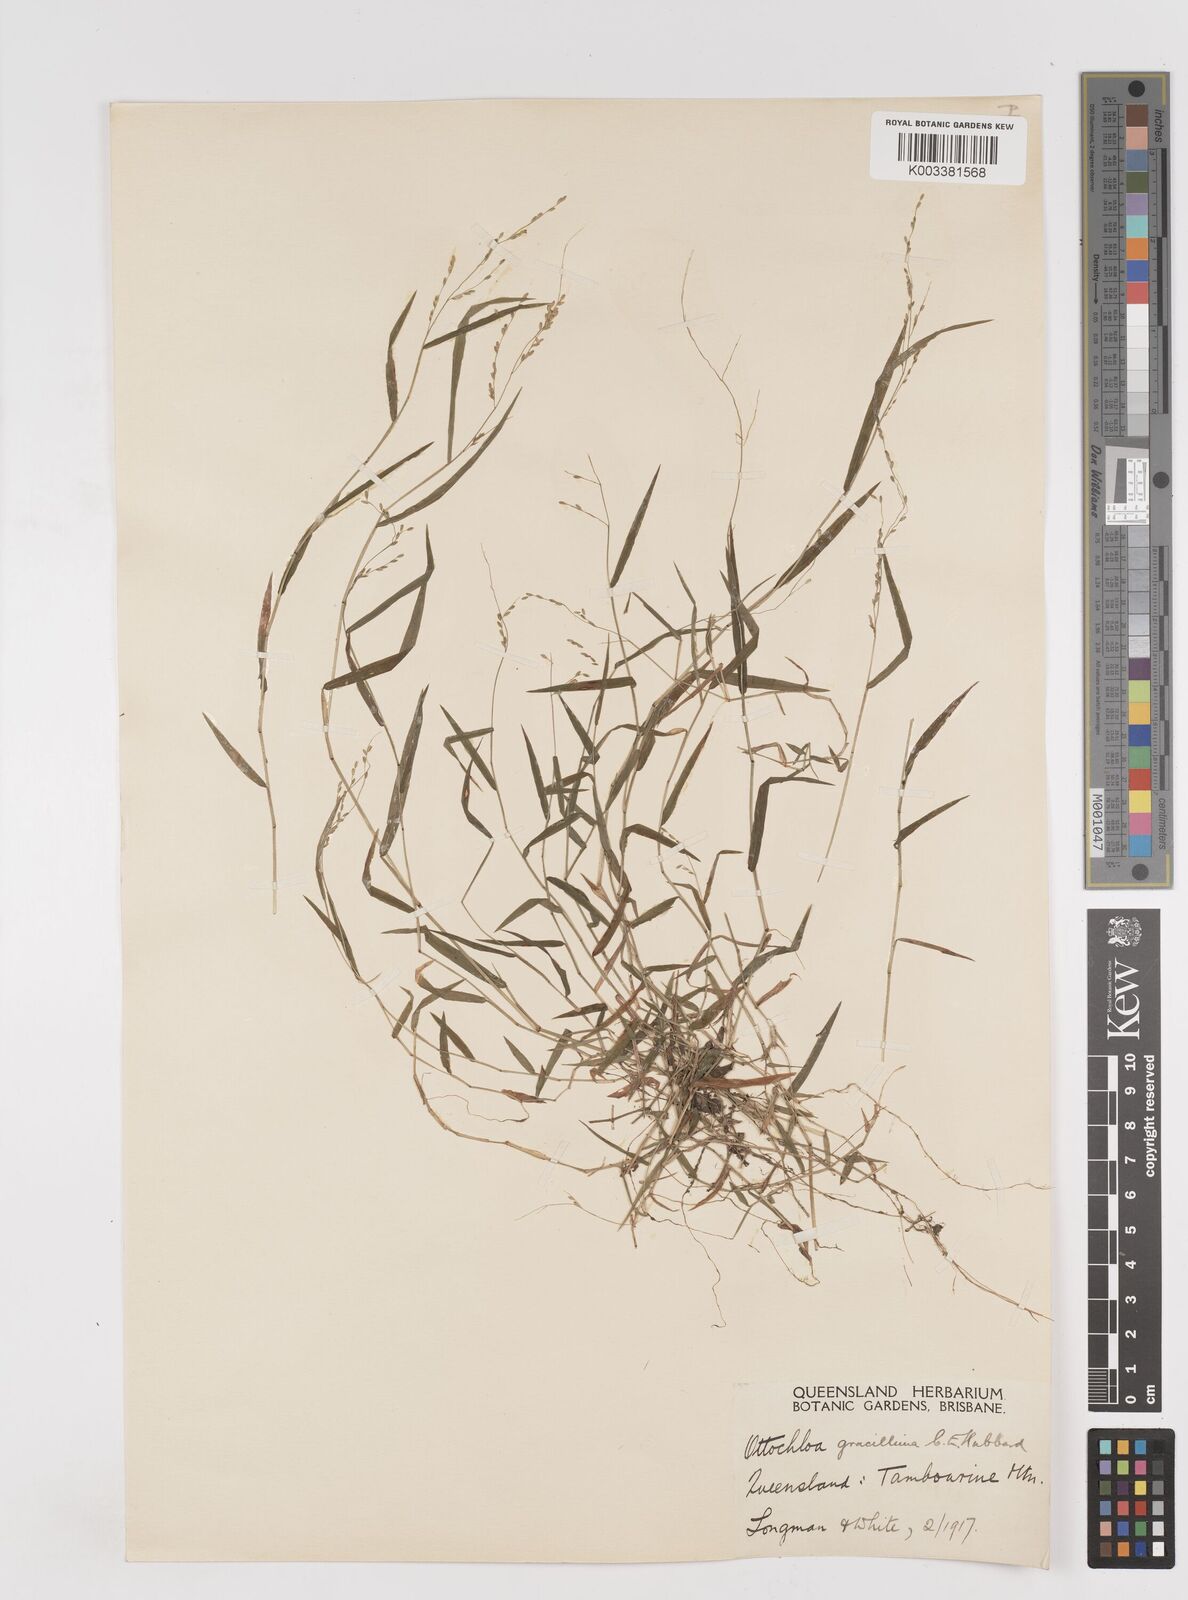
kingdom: Plantae
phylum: Tracheophyta
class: Liliopsida
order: Poales
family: Poaceae
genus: Ottochloa
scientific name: Ottochloa gracillima
